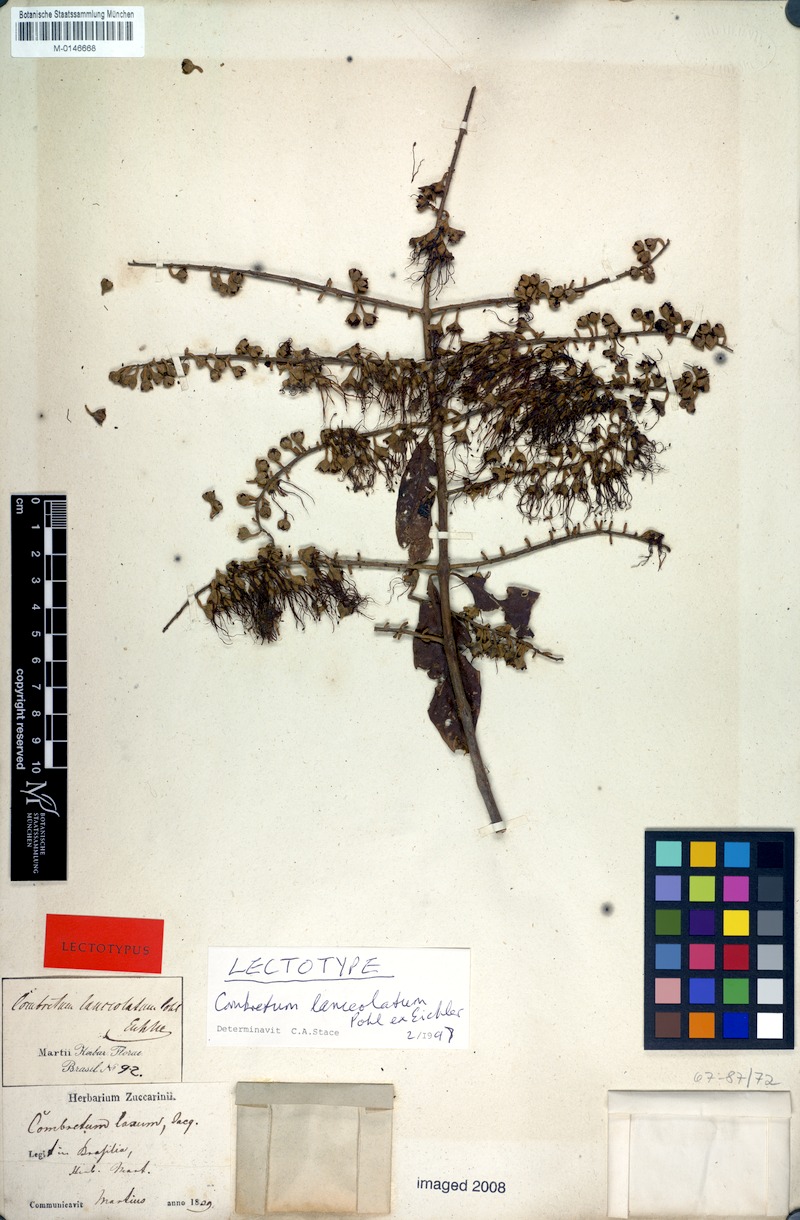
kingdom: Plantae
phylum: Tracheophyta
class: Magnoliopsida
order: Myrtales
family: Combretaceae
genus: Combretum
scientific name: Combretum lanceolatum
